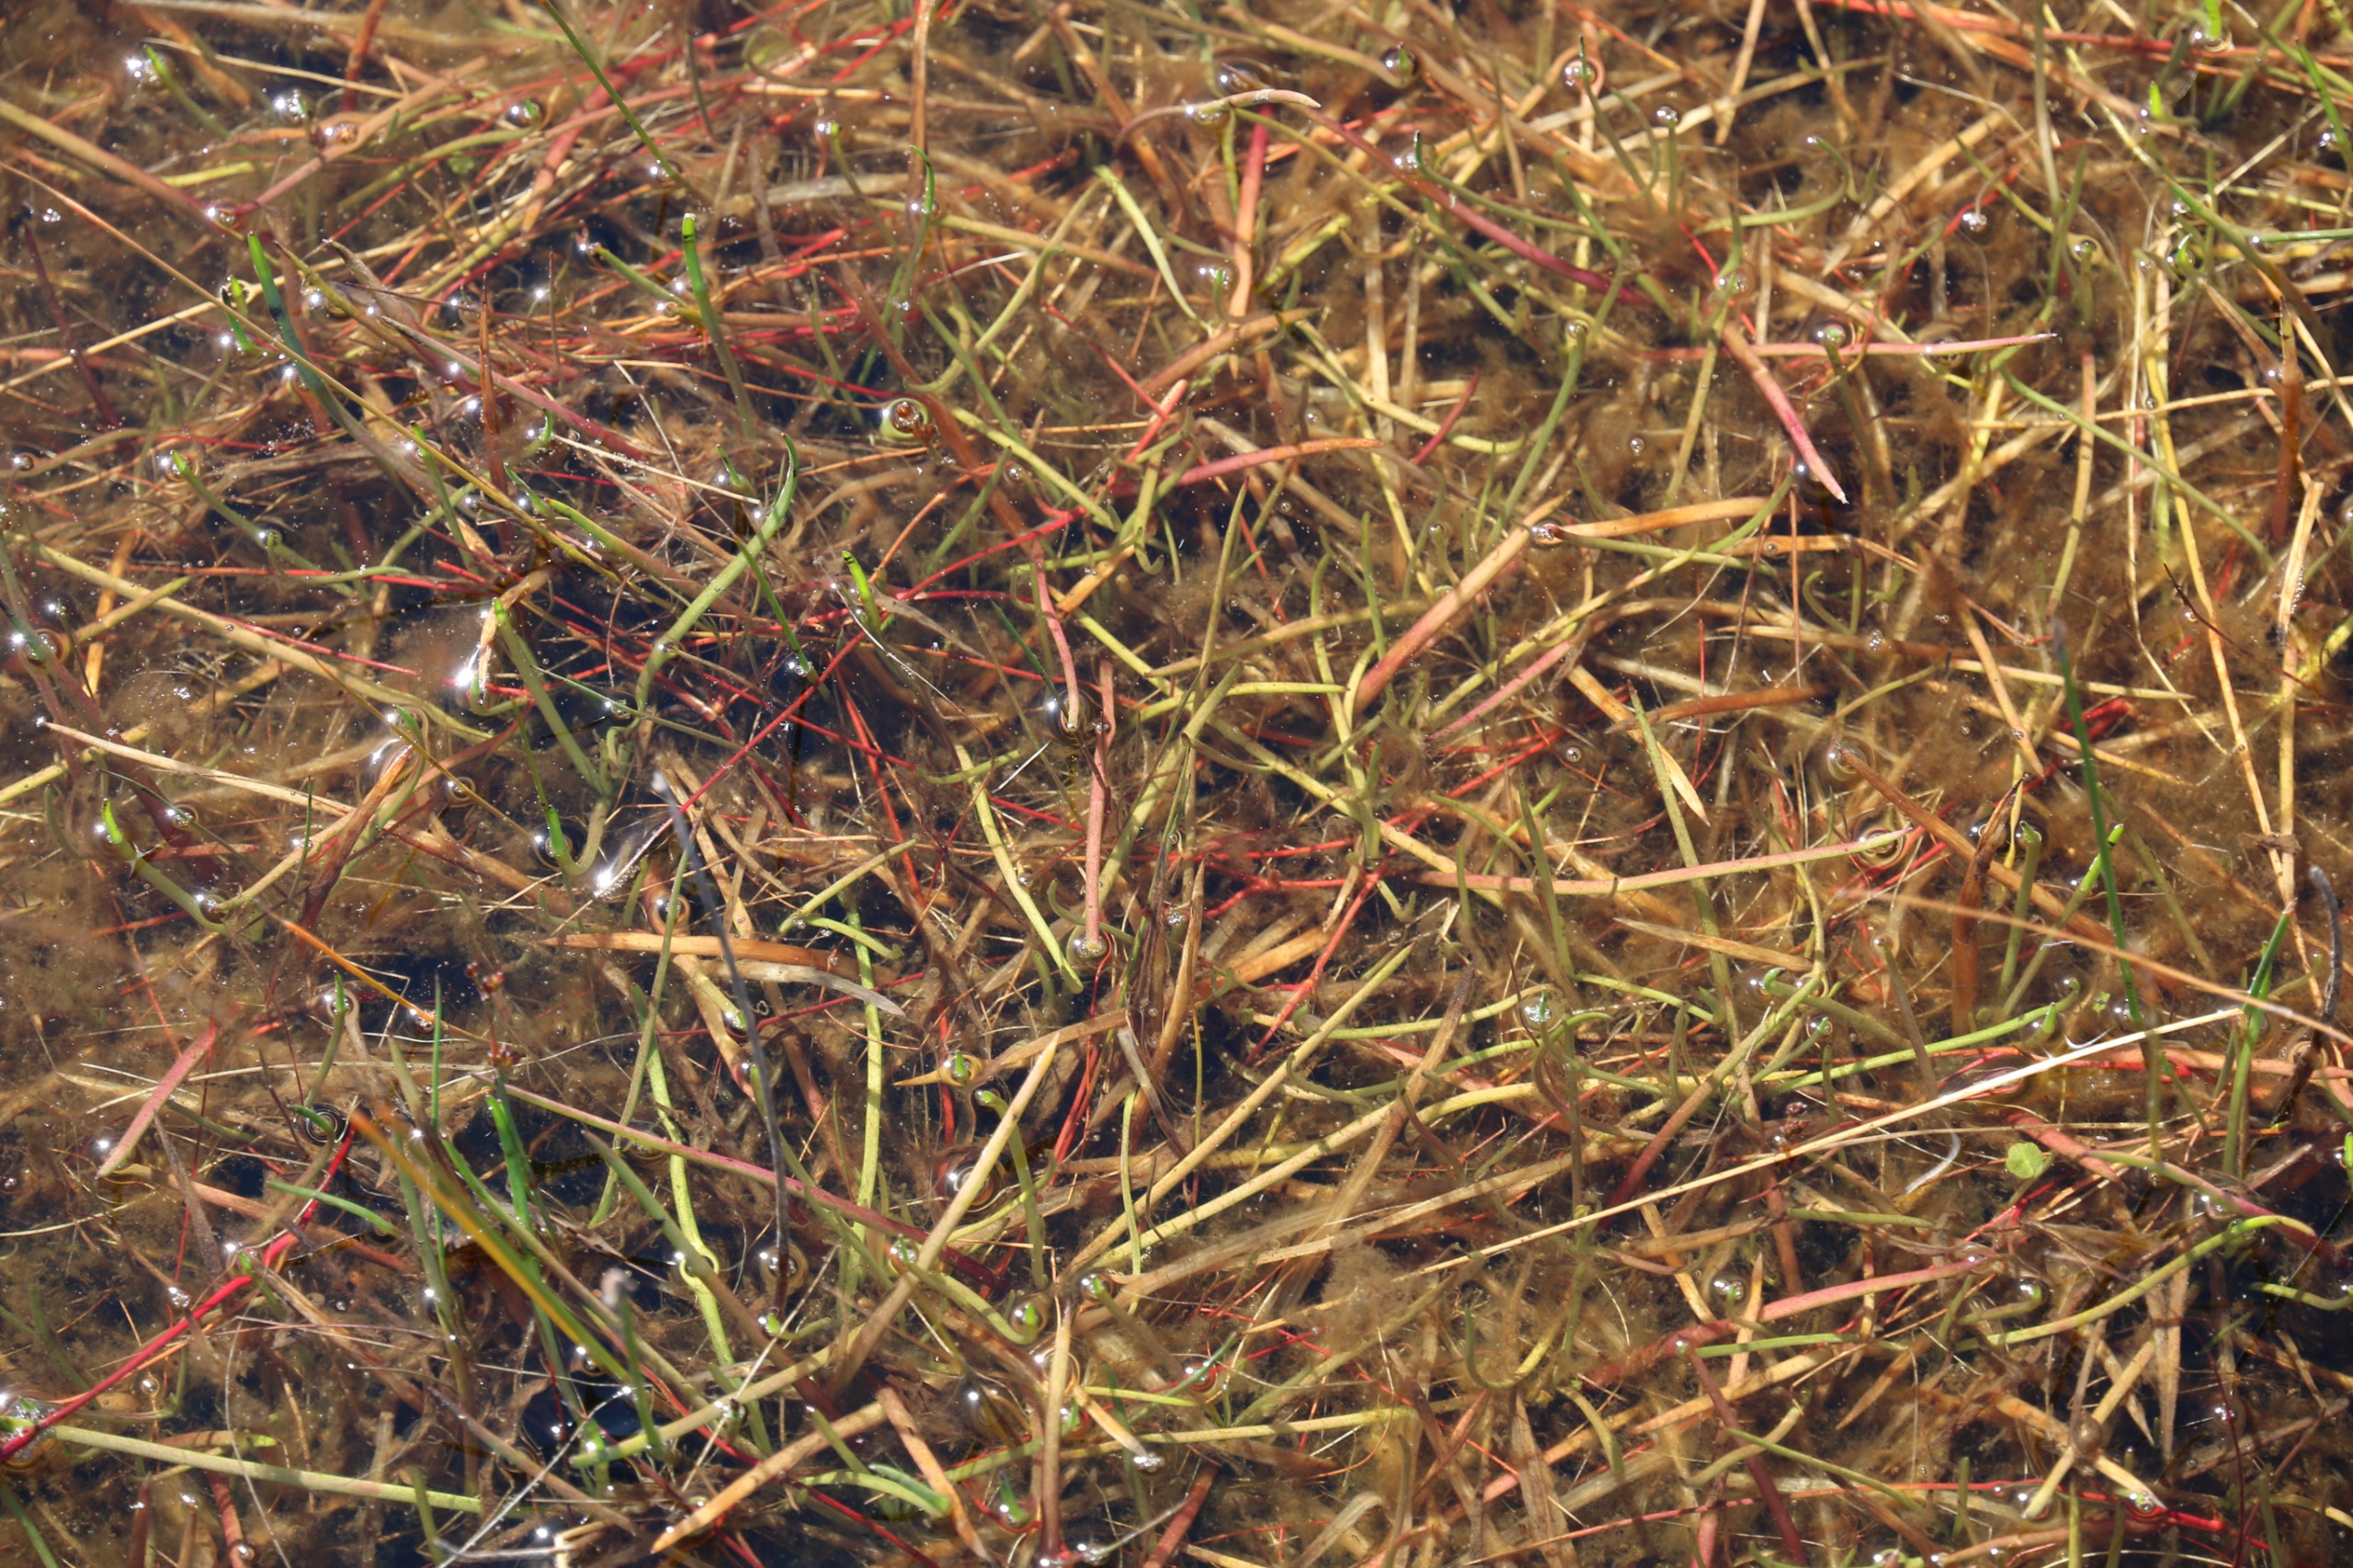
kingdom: Plantae
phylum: Tracheophyta
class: Magnoliopsida
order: Lamiales
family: Plantaginaceae
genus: Littorella
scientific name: Littorella uniflora
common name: Strandbo
